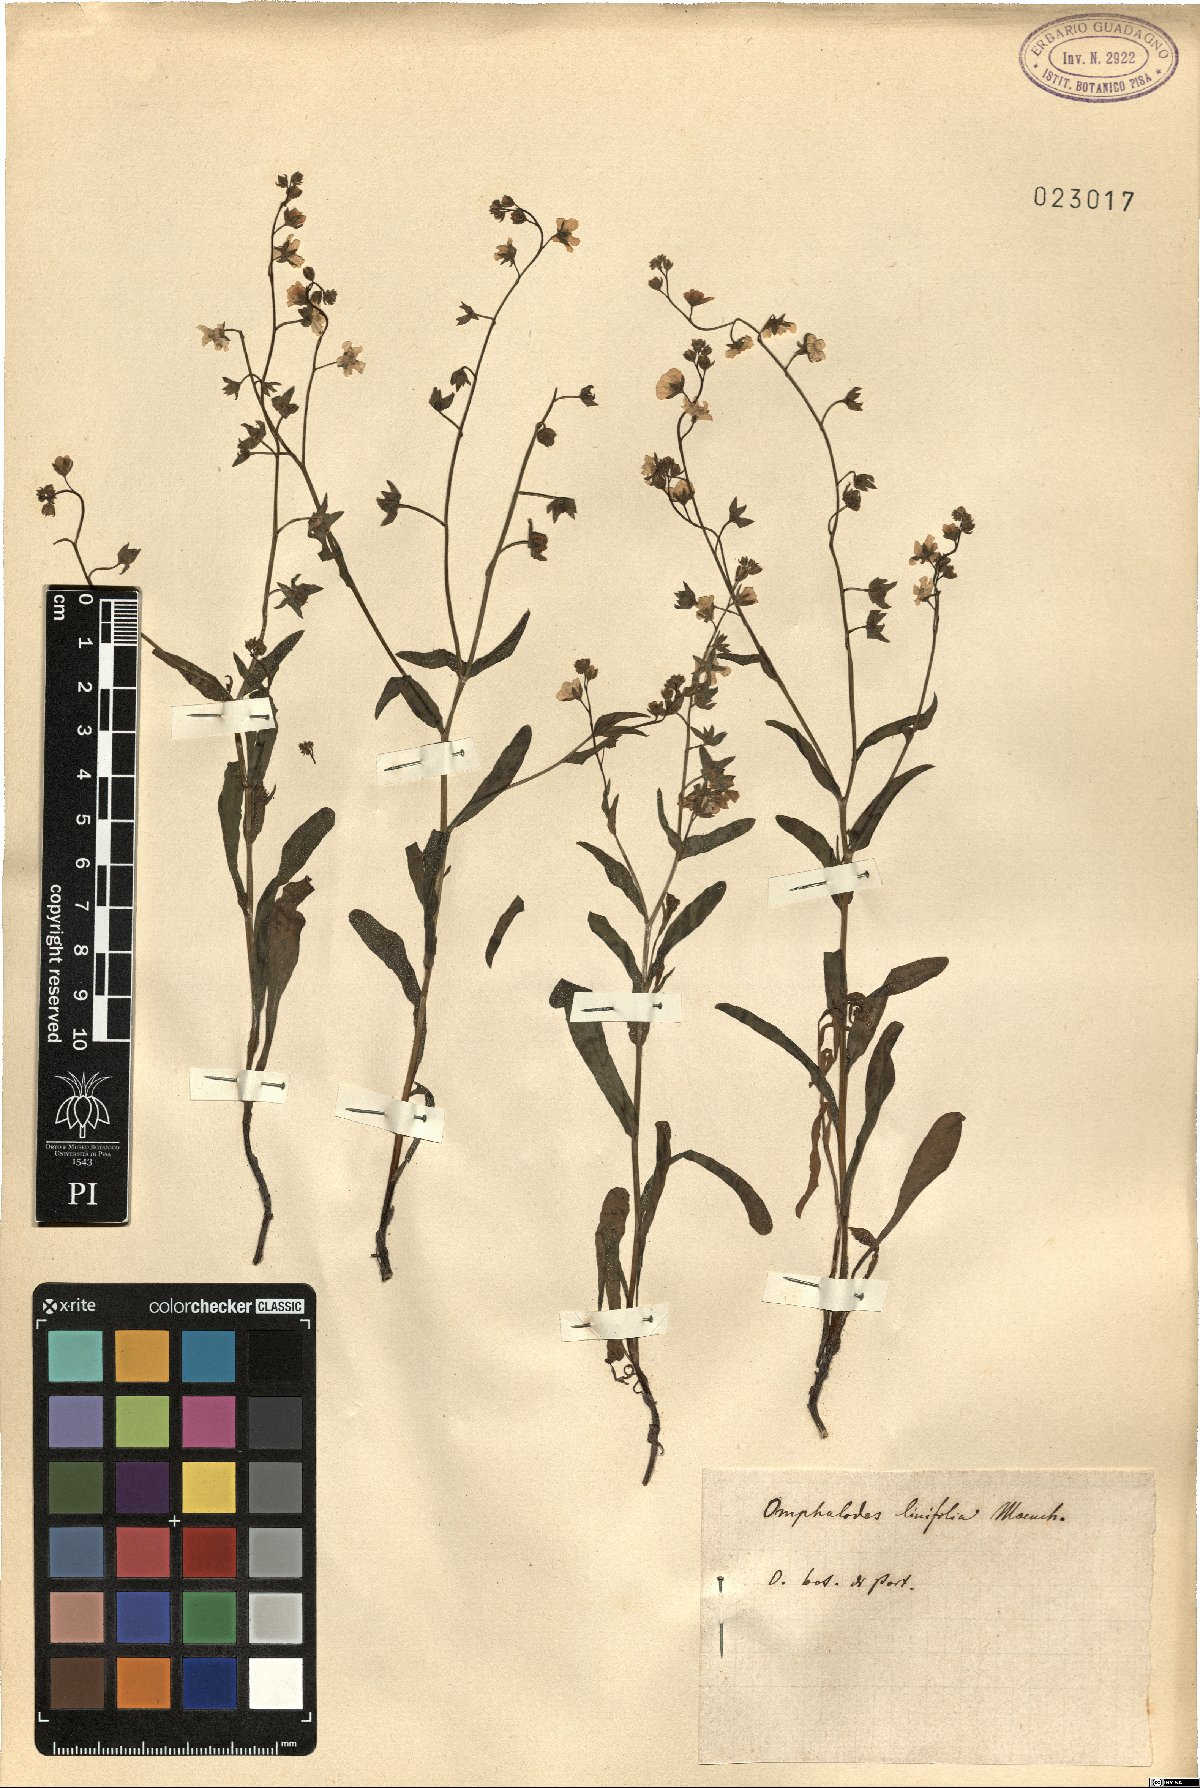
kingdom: Plantae
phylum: Tracheophyta
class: Magnoliopsida
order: Boraginales
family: Boraginaceae
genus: Iberodes
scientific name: Iberodes linifolia
